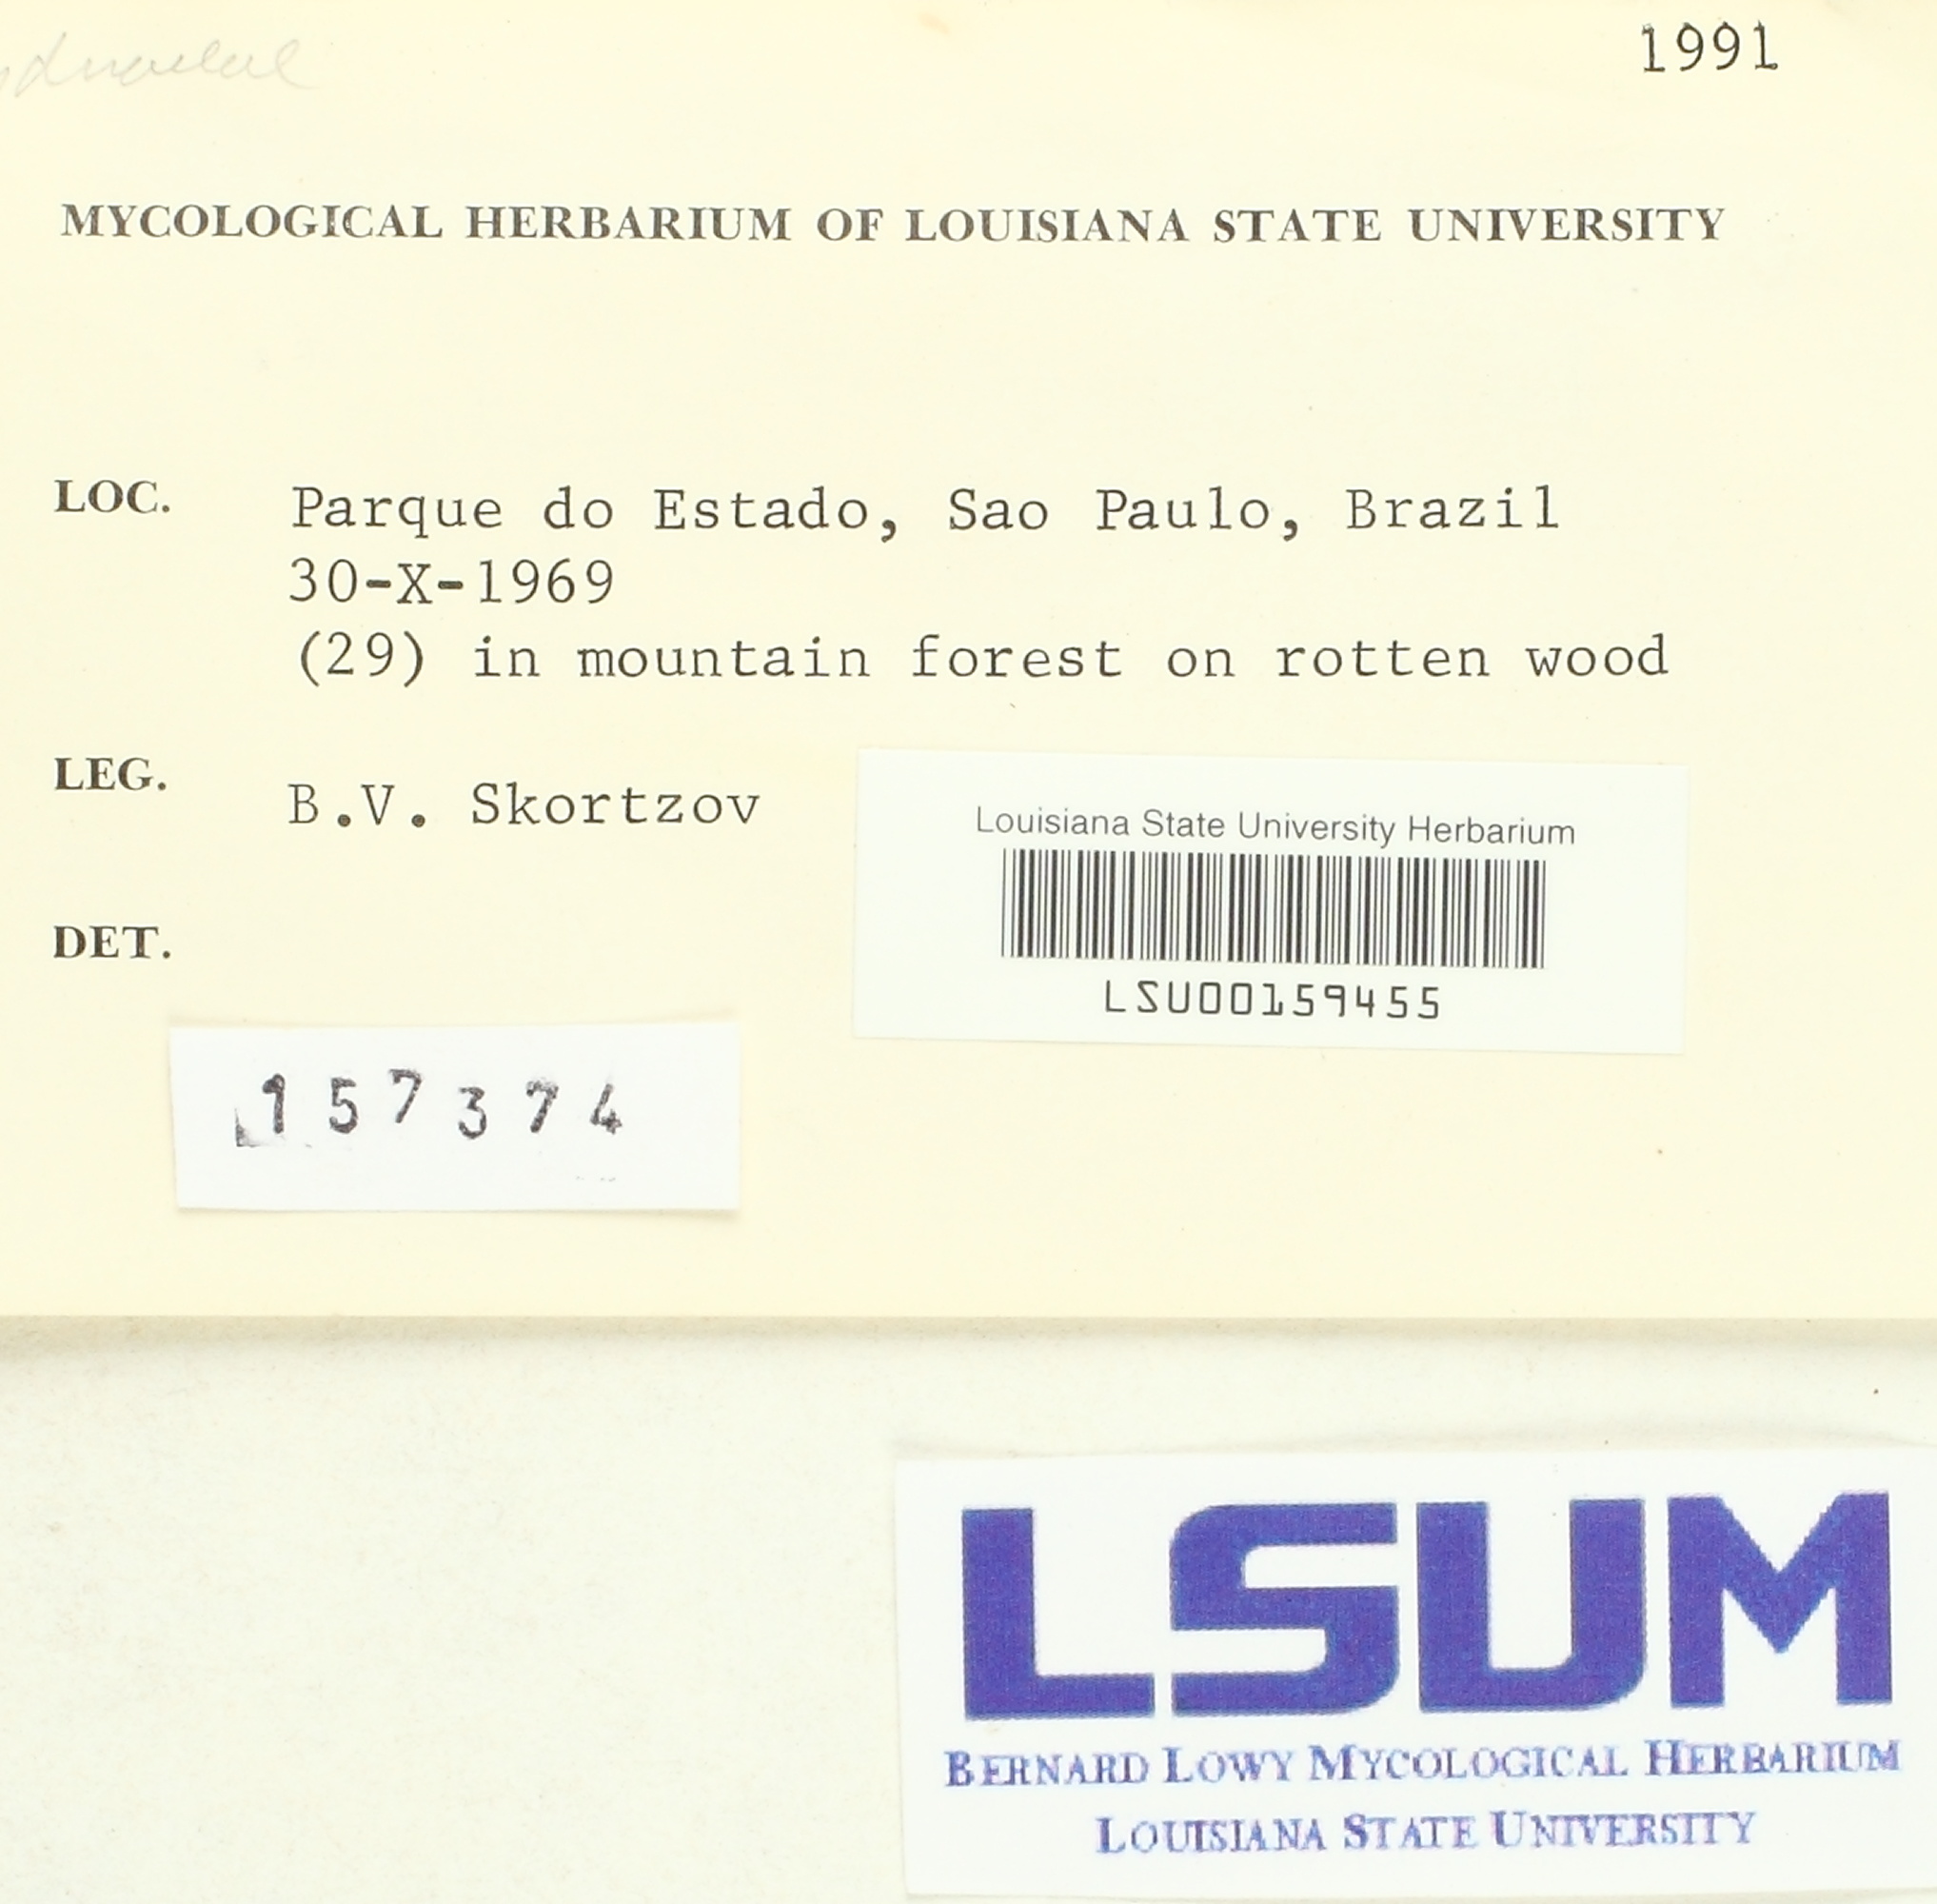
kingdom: Fungi
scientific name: Fungi
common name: Fungi
